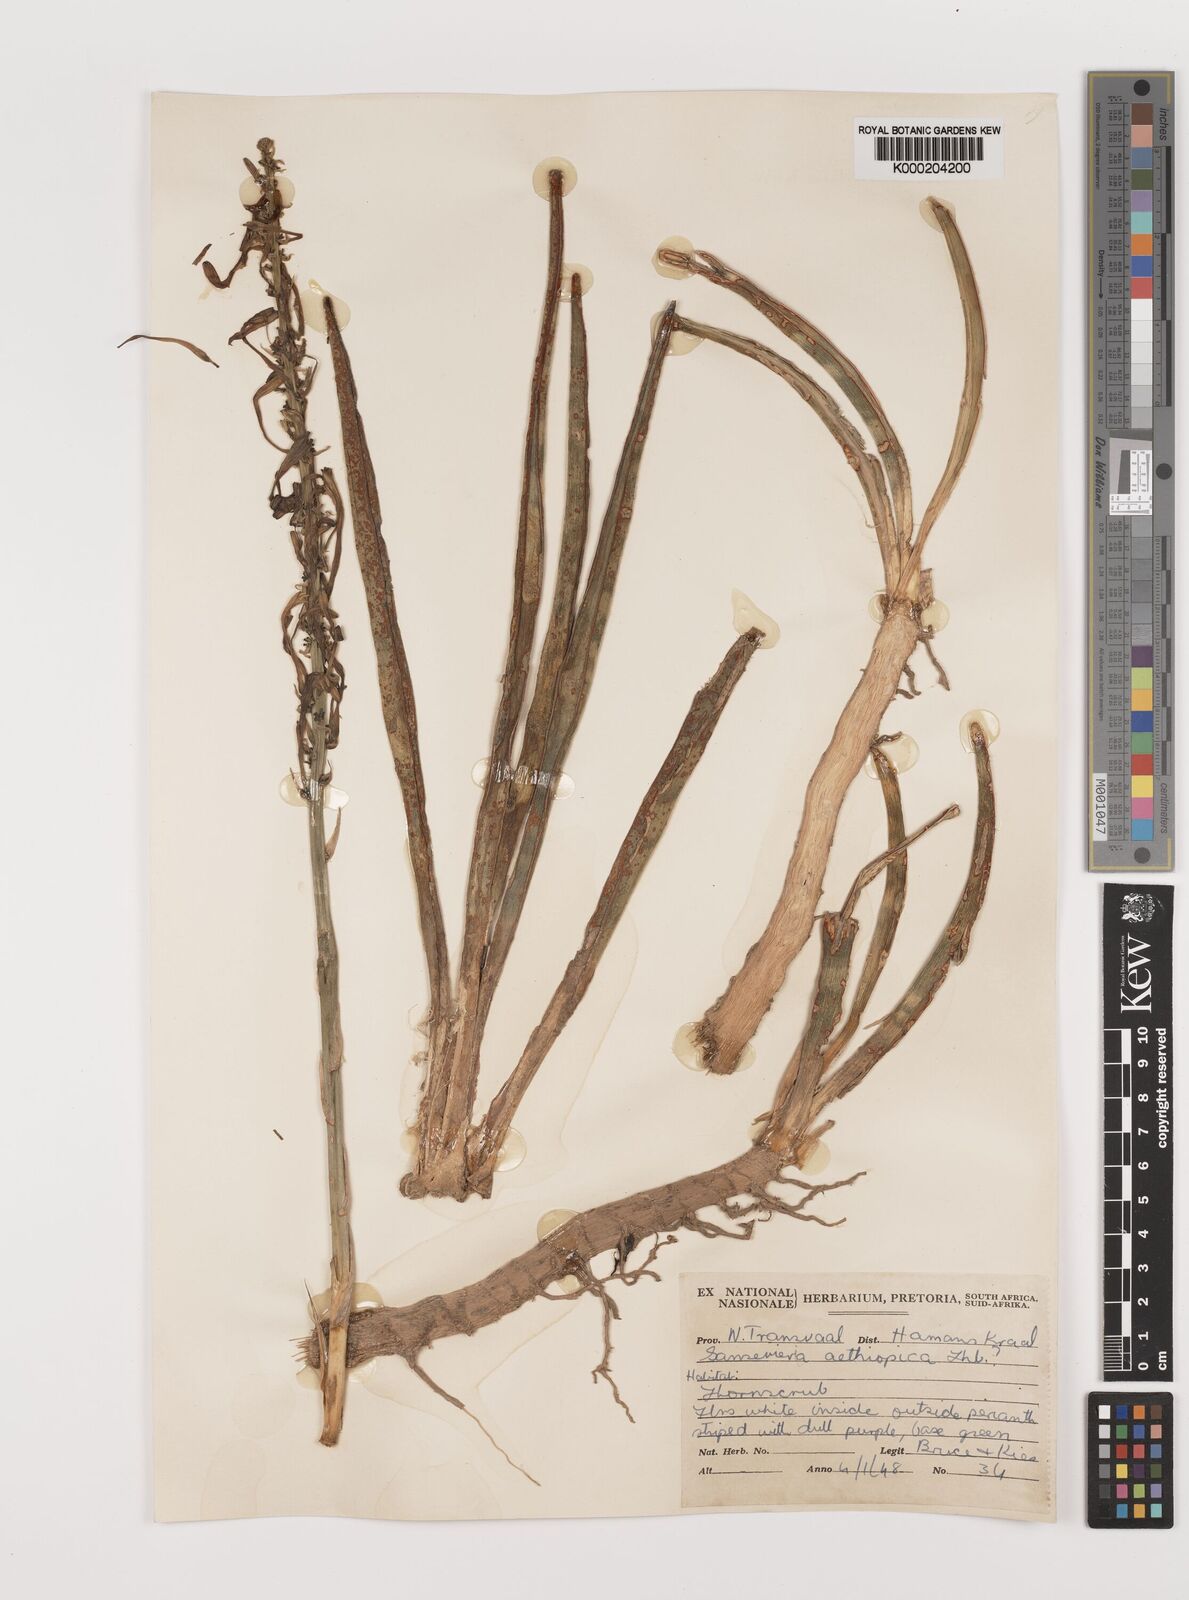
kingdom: Plantae
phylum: Tracheophyta
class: Liliopsida
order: Asparagales
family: Asparagaceae
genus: Dracaena
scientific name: Dracaena aethiopica
